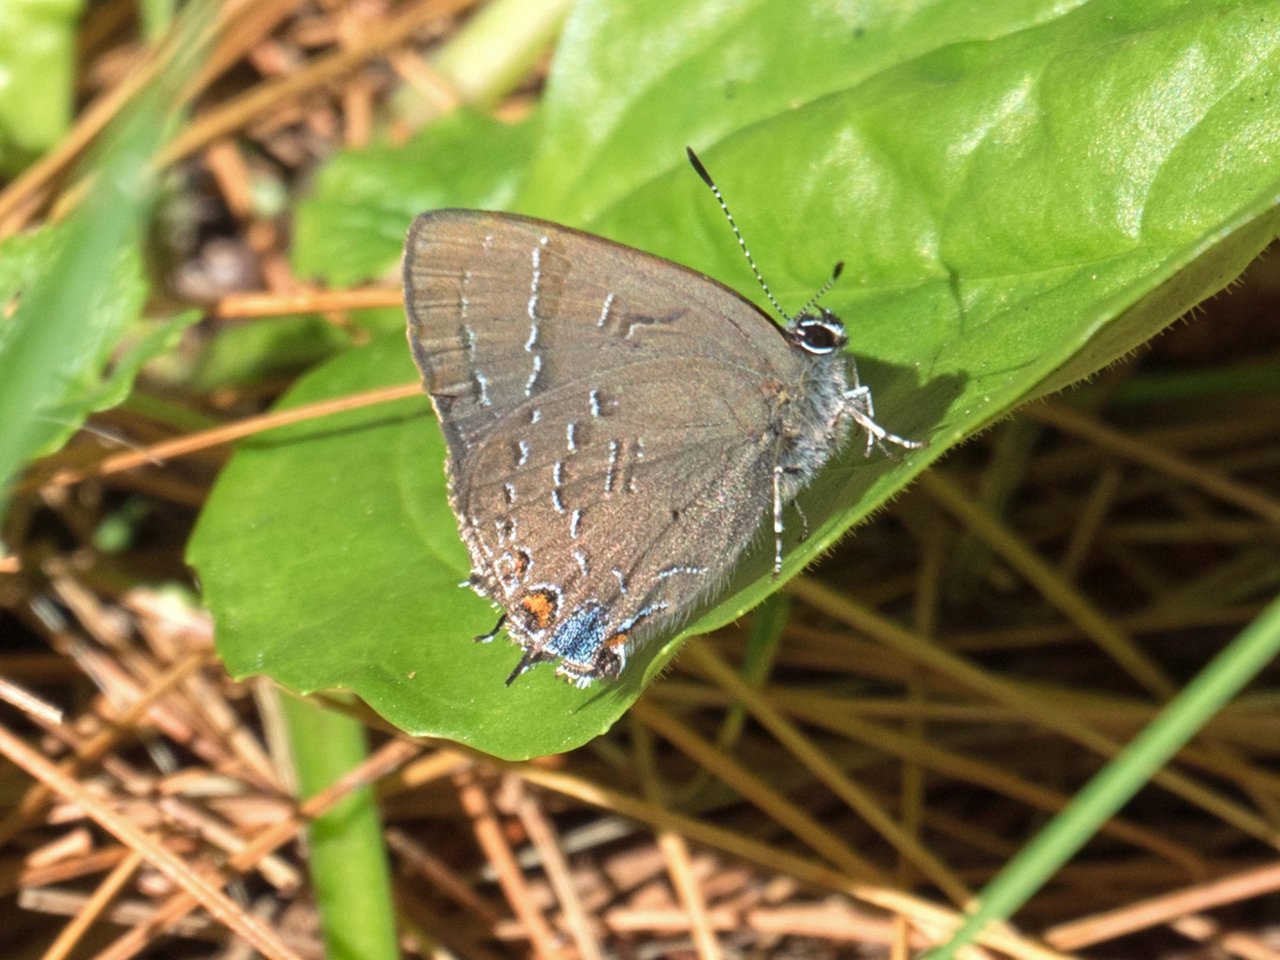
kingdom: Animalia
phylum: Arthropoda
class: Insecta
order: Lepidoptera
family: Lycaenidae
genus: Satyrium
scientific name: Satyrium calanus
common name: Banded Hairstreak
